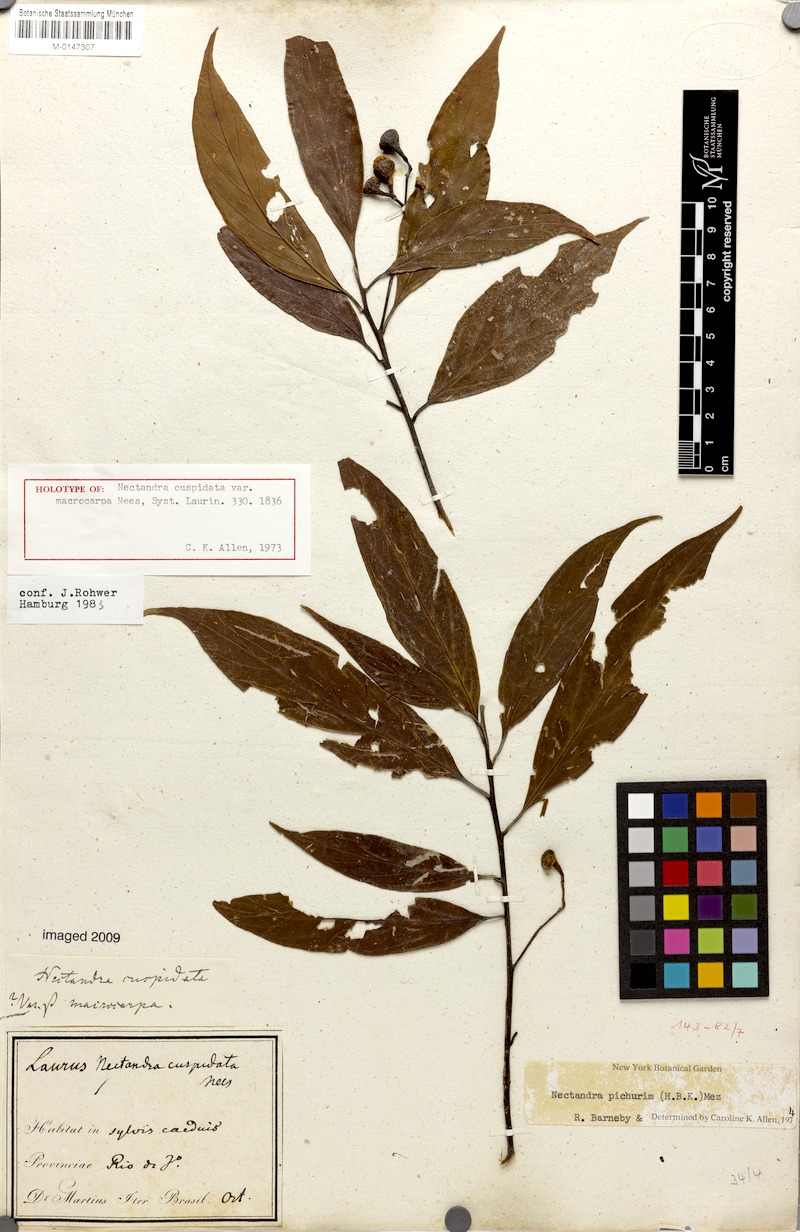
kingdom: Plantae
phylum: Tracheophyta
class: Magnoliopsida
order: Laurales
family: Lauraceae
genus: Nectandra
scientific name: Nectandra pichurim
